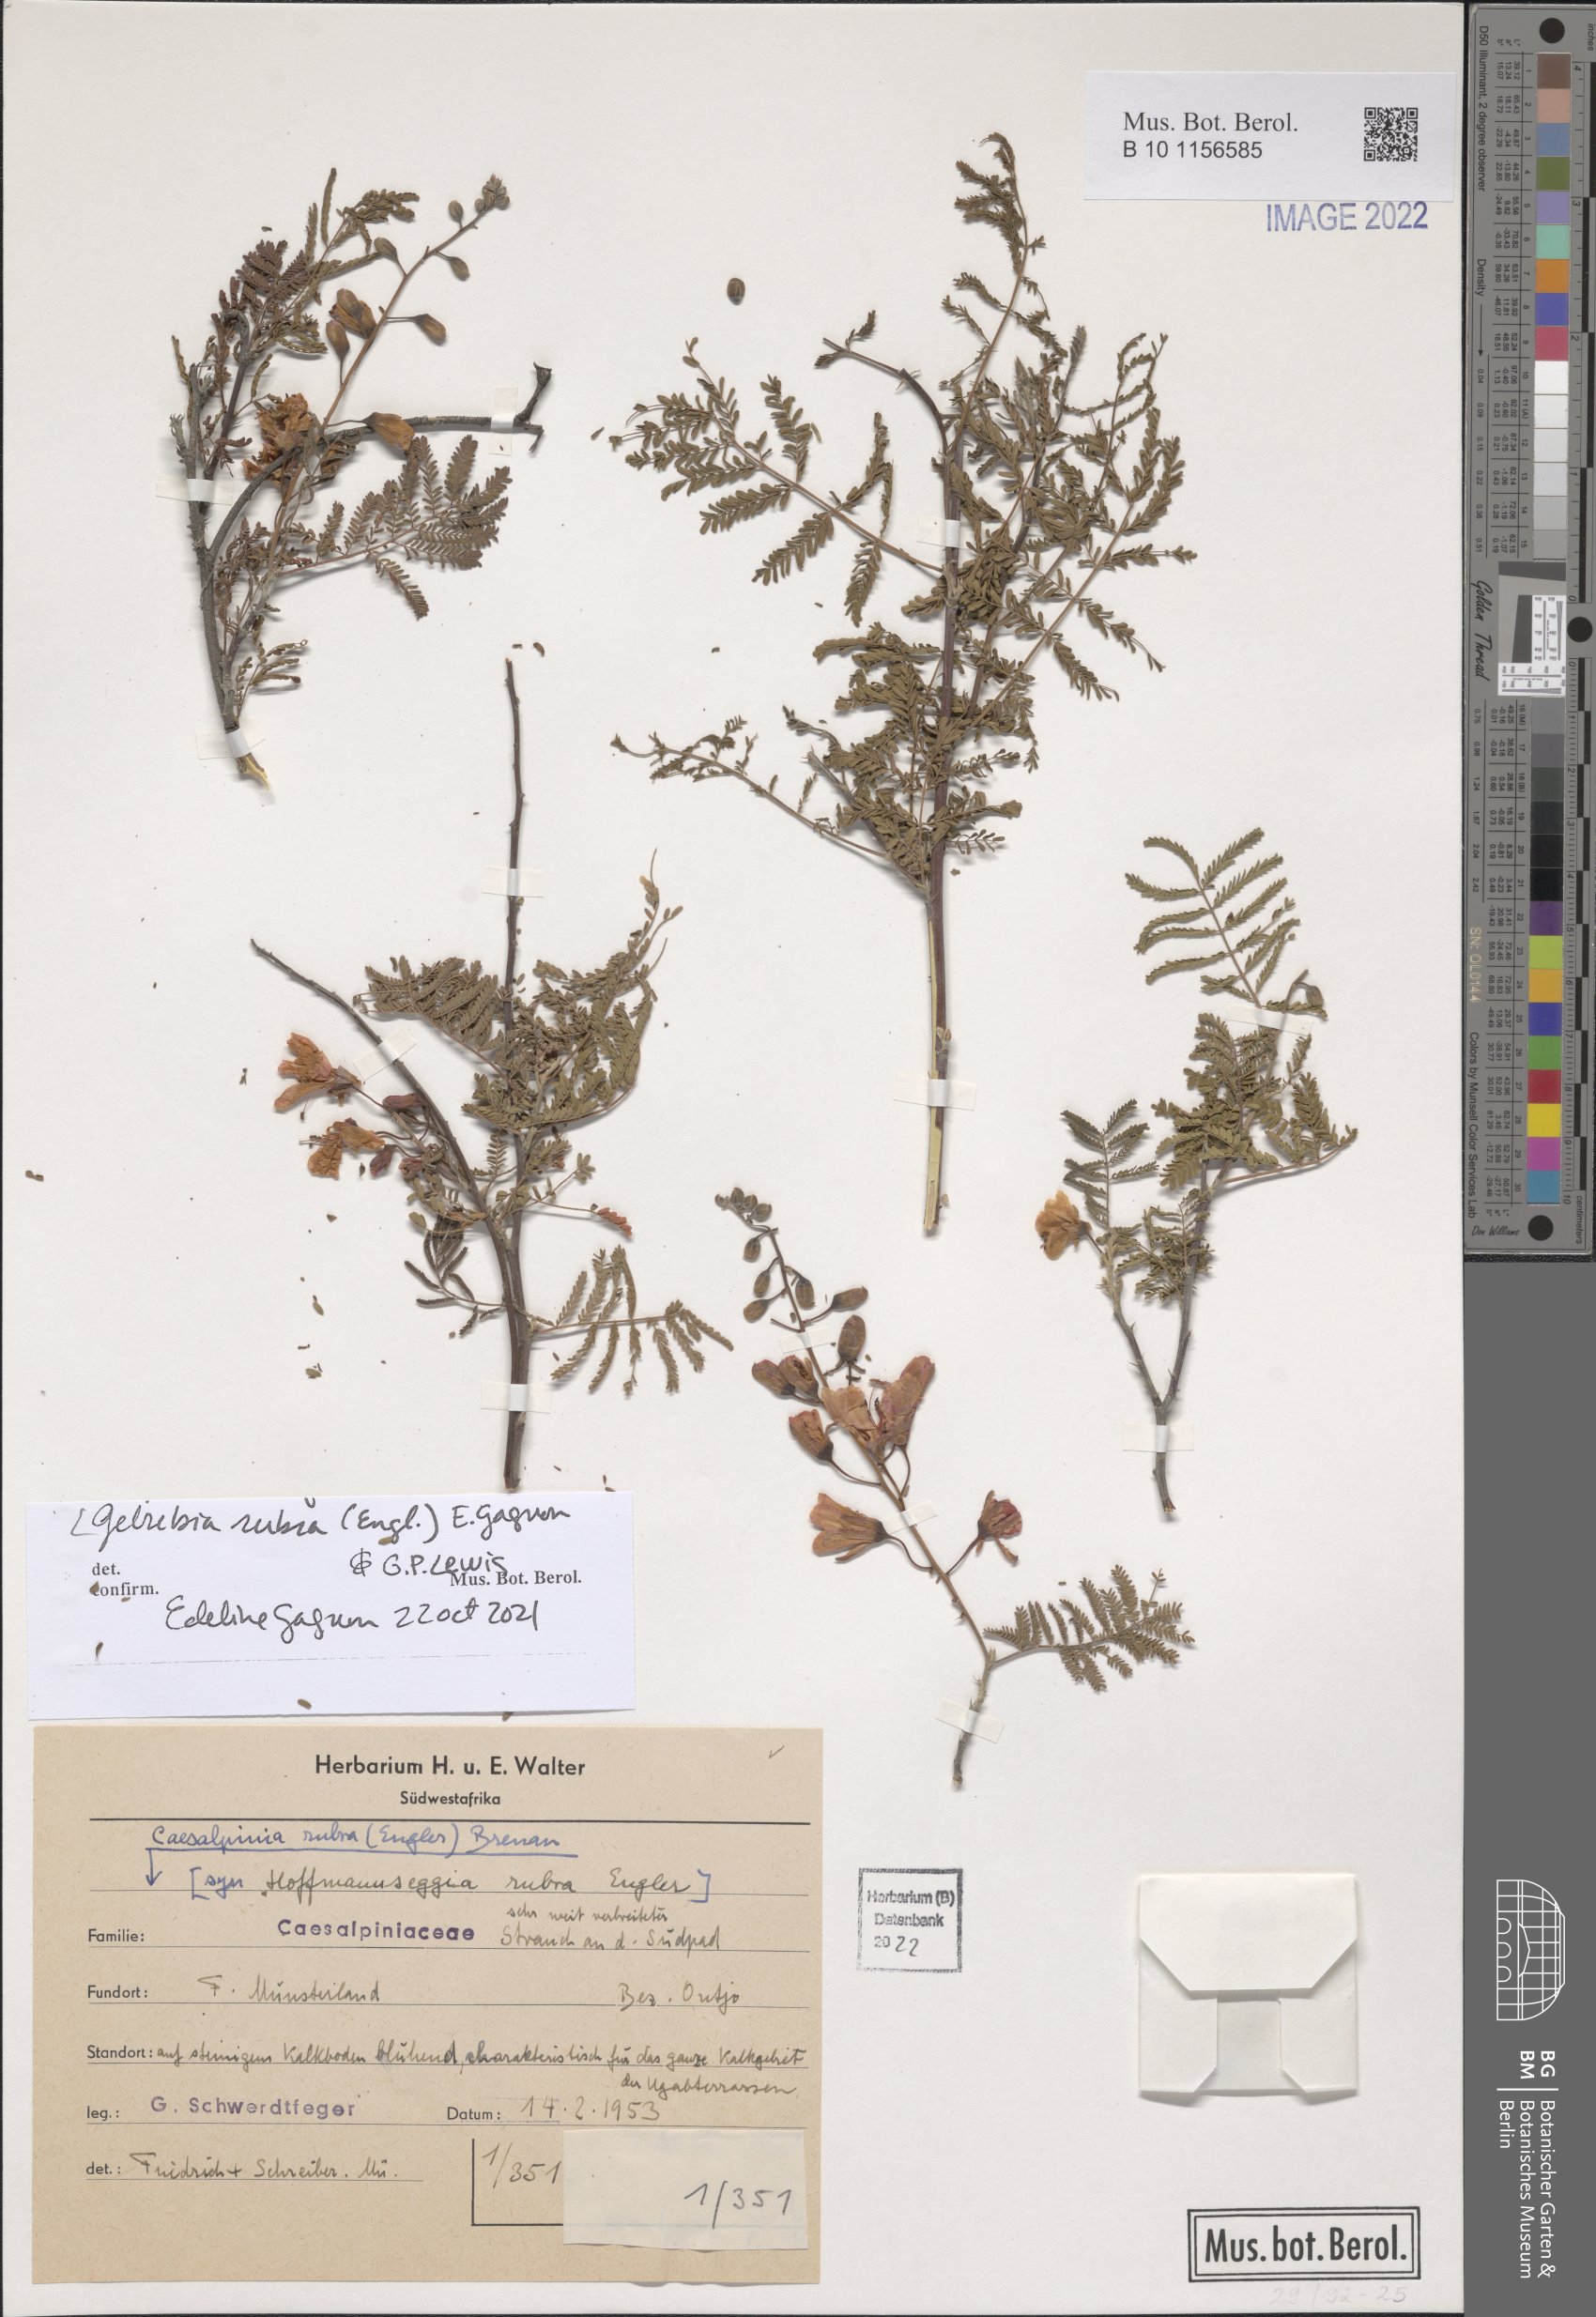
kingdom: Plantae
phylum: Tracheophyta
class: Magnoliopsida
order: Fabales
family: Fabaceae
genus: Gelrebia
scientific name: Gelrebia rubra
